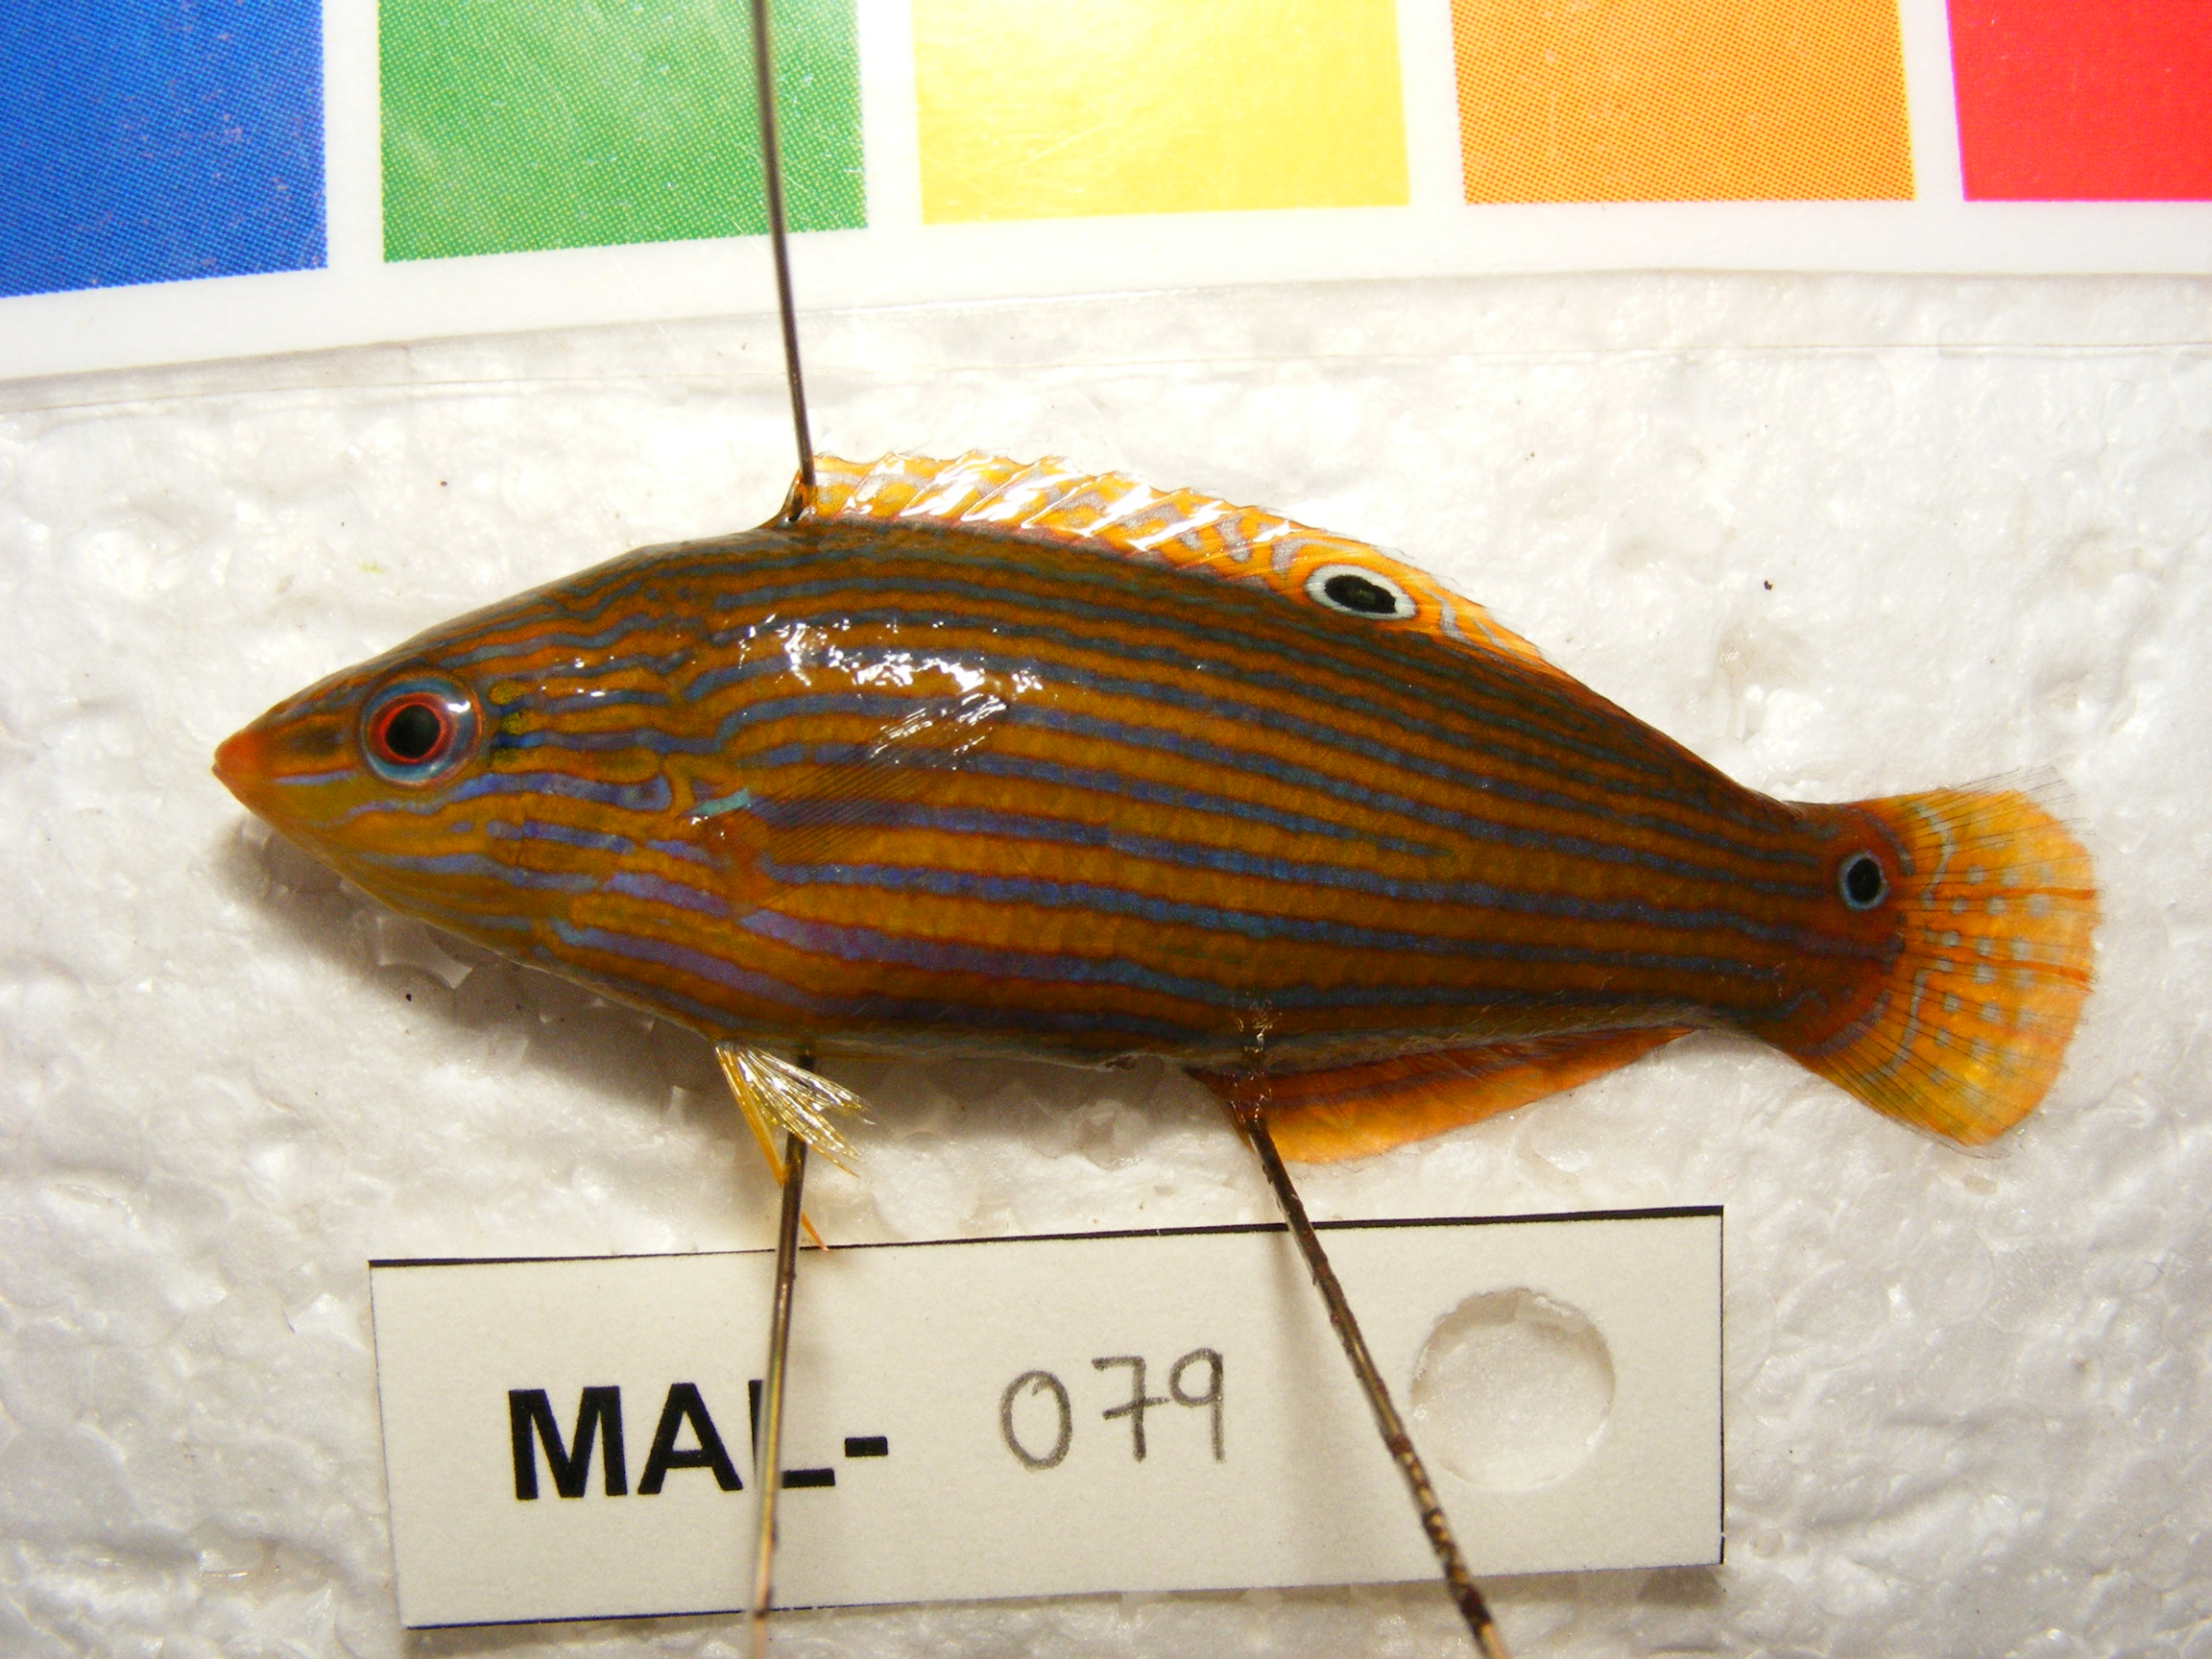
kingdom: Animalia
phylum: Chordata
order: Perciformes
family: Labridae
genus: Halichoeres
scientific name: Halichoeres vrolikii
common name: Indian ocean pinstriped wrasse
